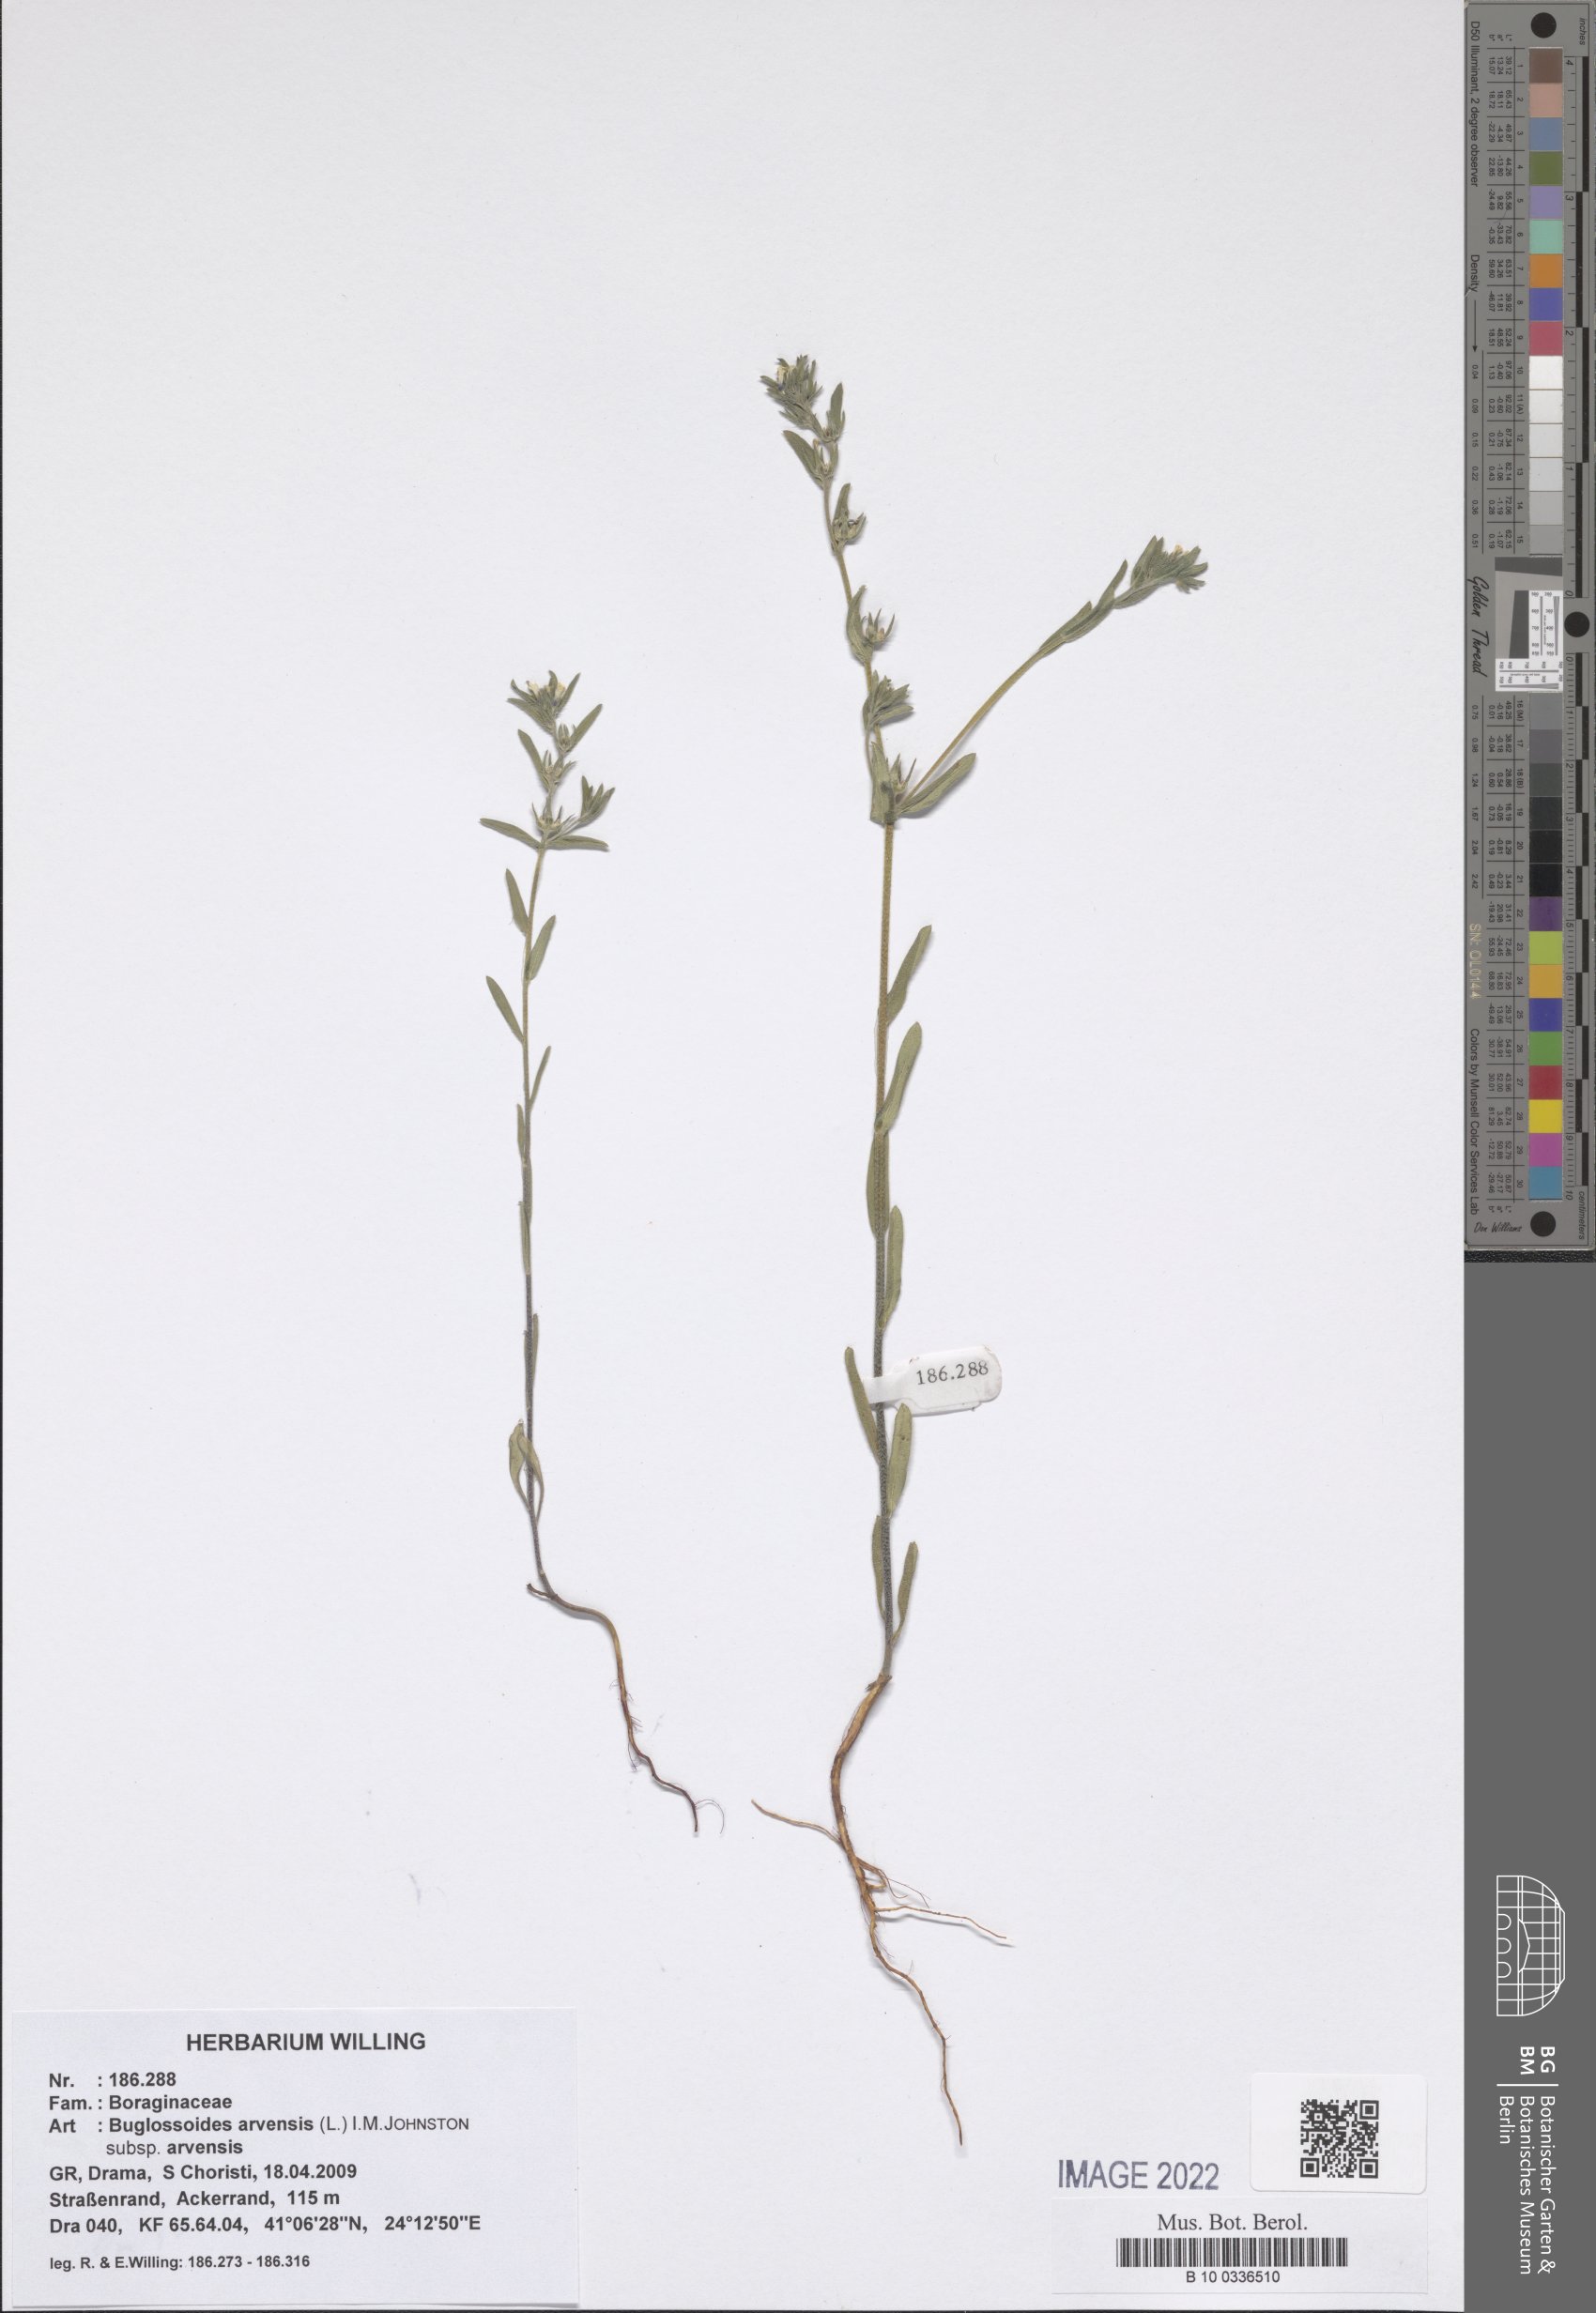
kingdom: Plantae
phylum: Tracheophyta
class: Magnoliopsida
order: Boraginales
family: Boraginaceae
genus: Buglossoides
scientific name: Buglossoides arvensis
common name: Corn gromwell
